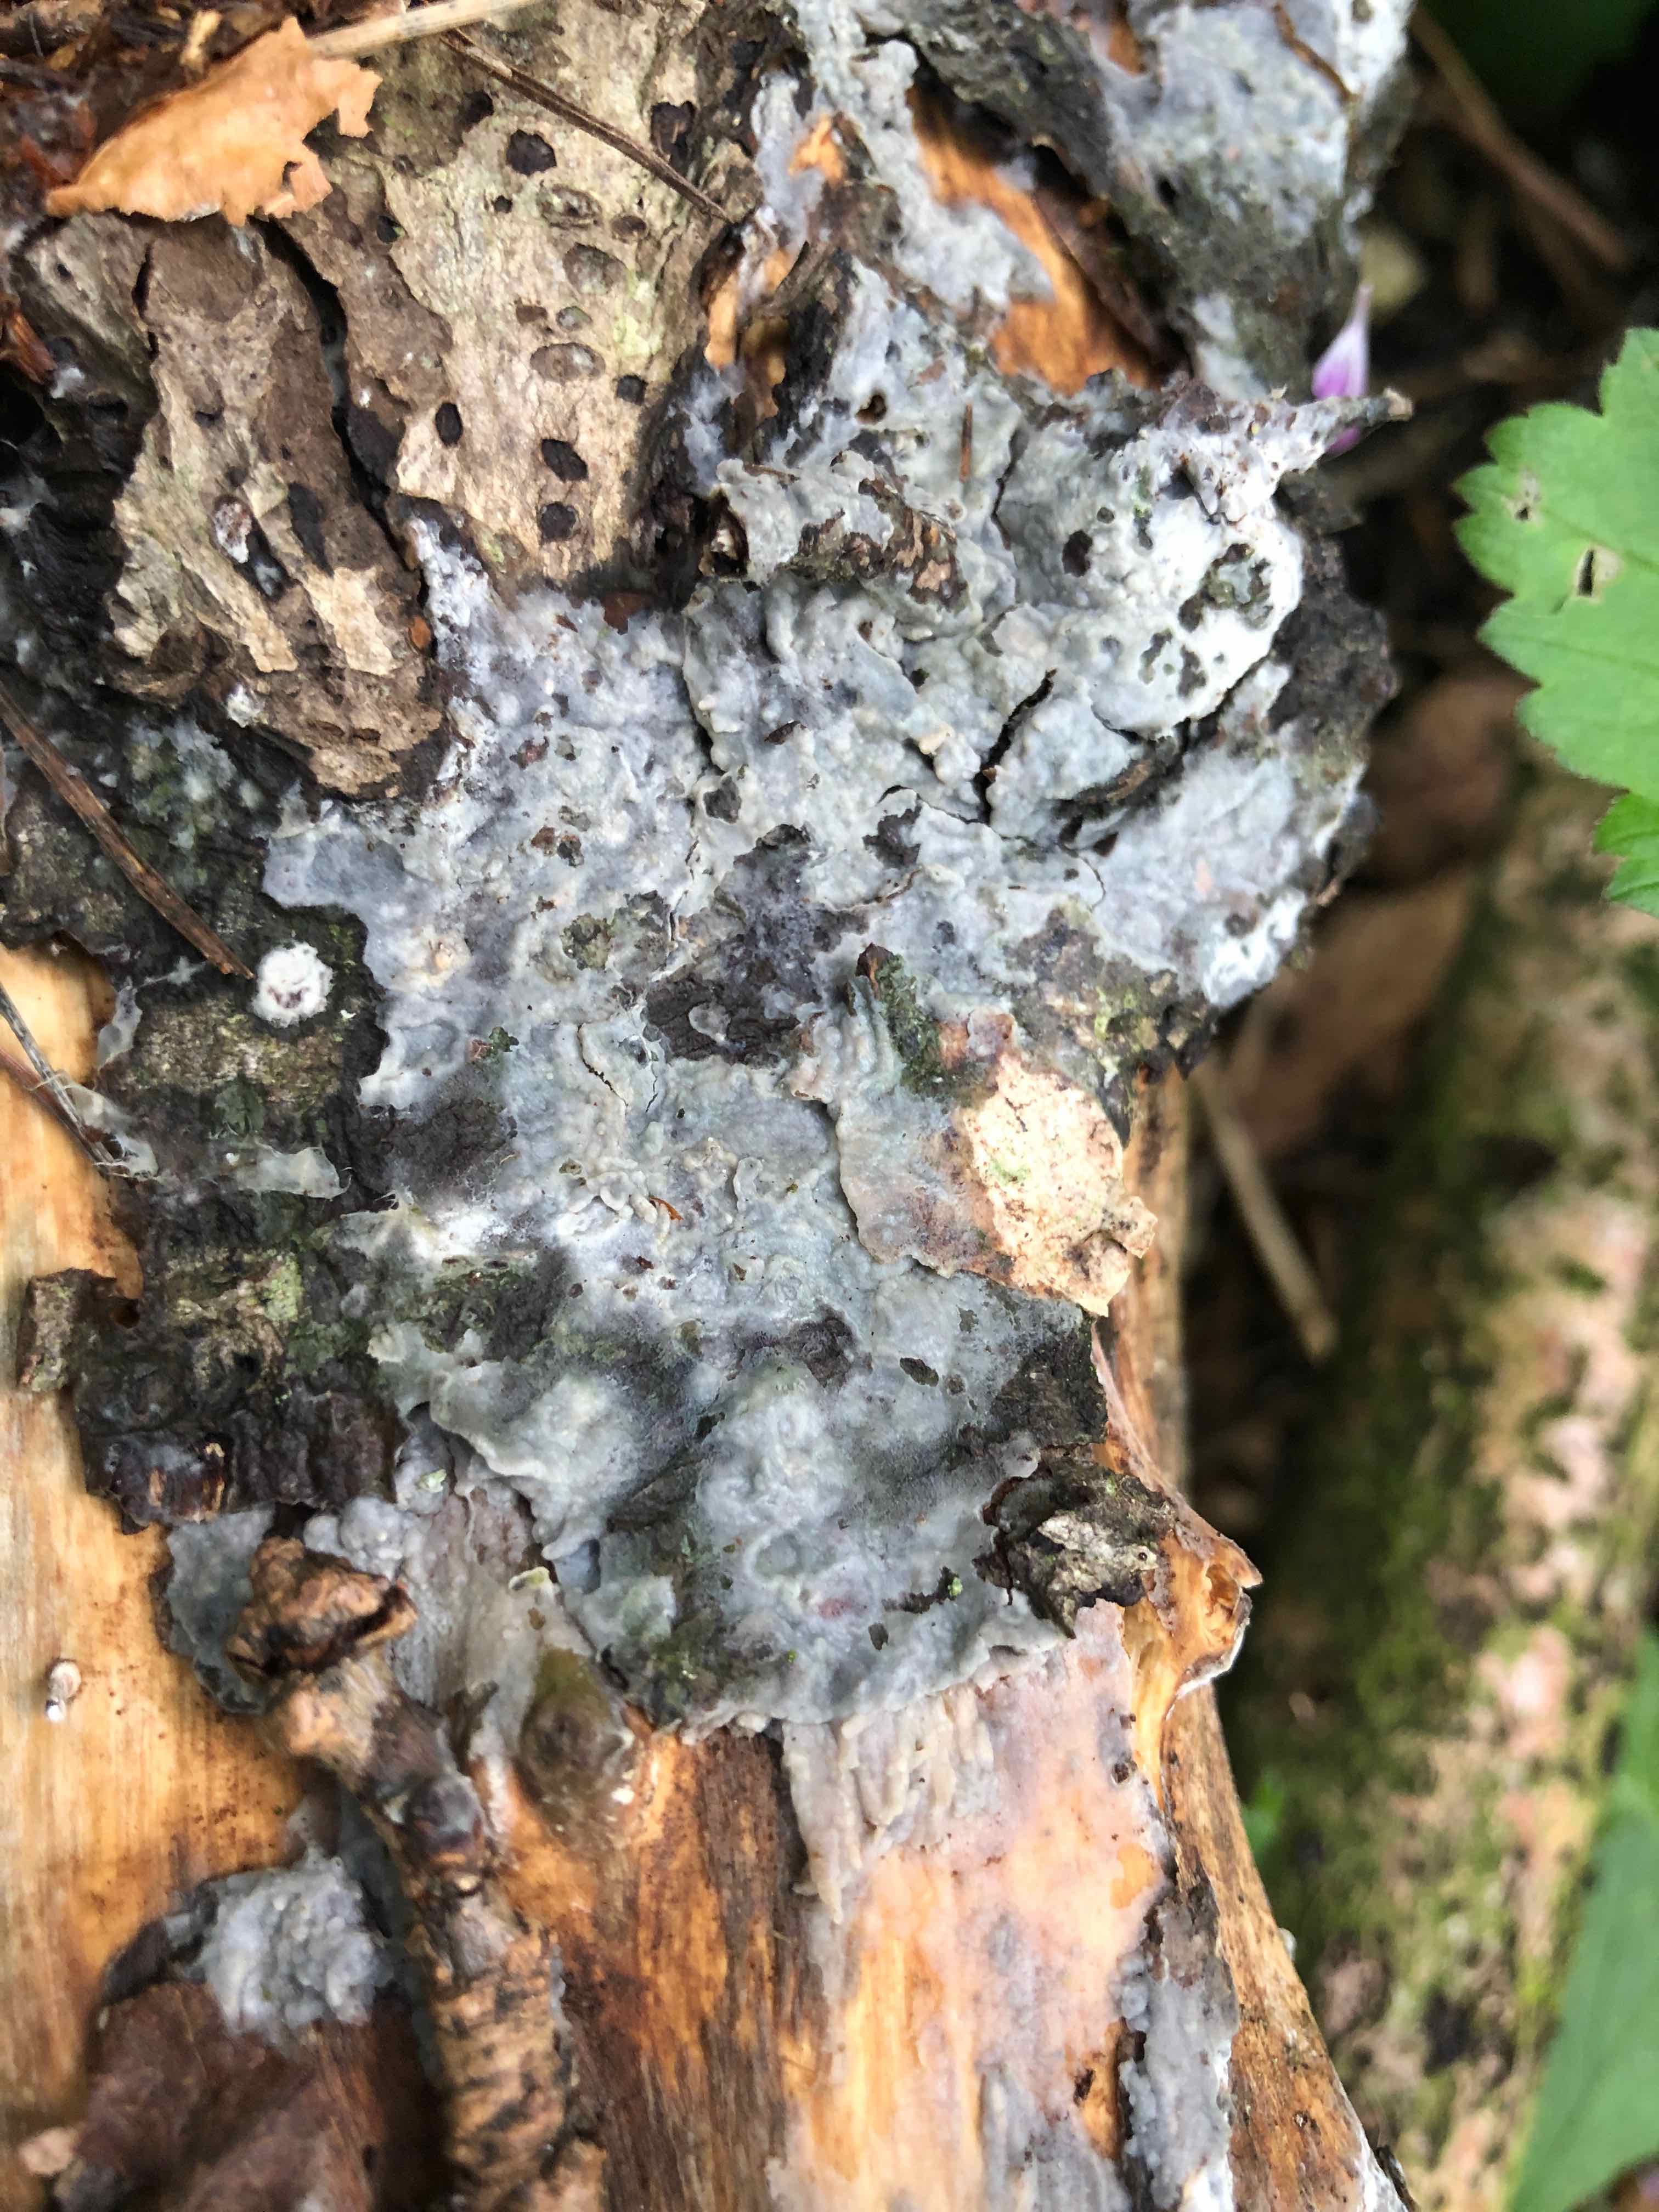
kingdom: Fungi
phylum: Ascomycota
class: Sordariomycetes
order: Xylariales
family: Xylariaceae
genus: Xylaria
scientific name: Xylaria hypoxylon
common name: grenet stødsvamp
